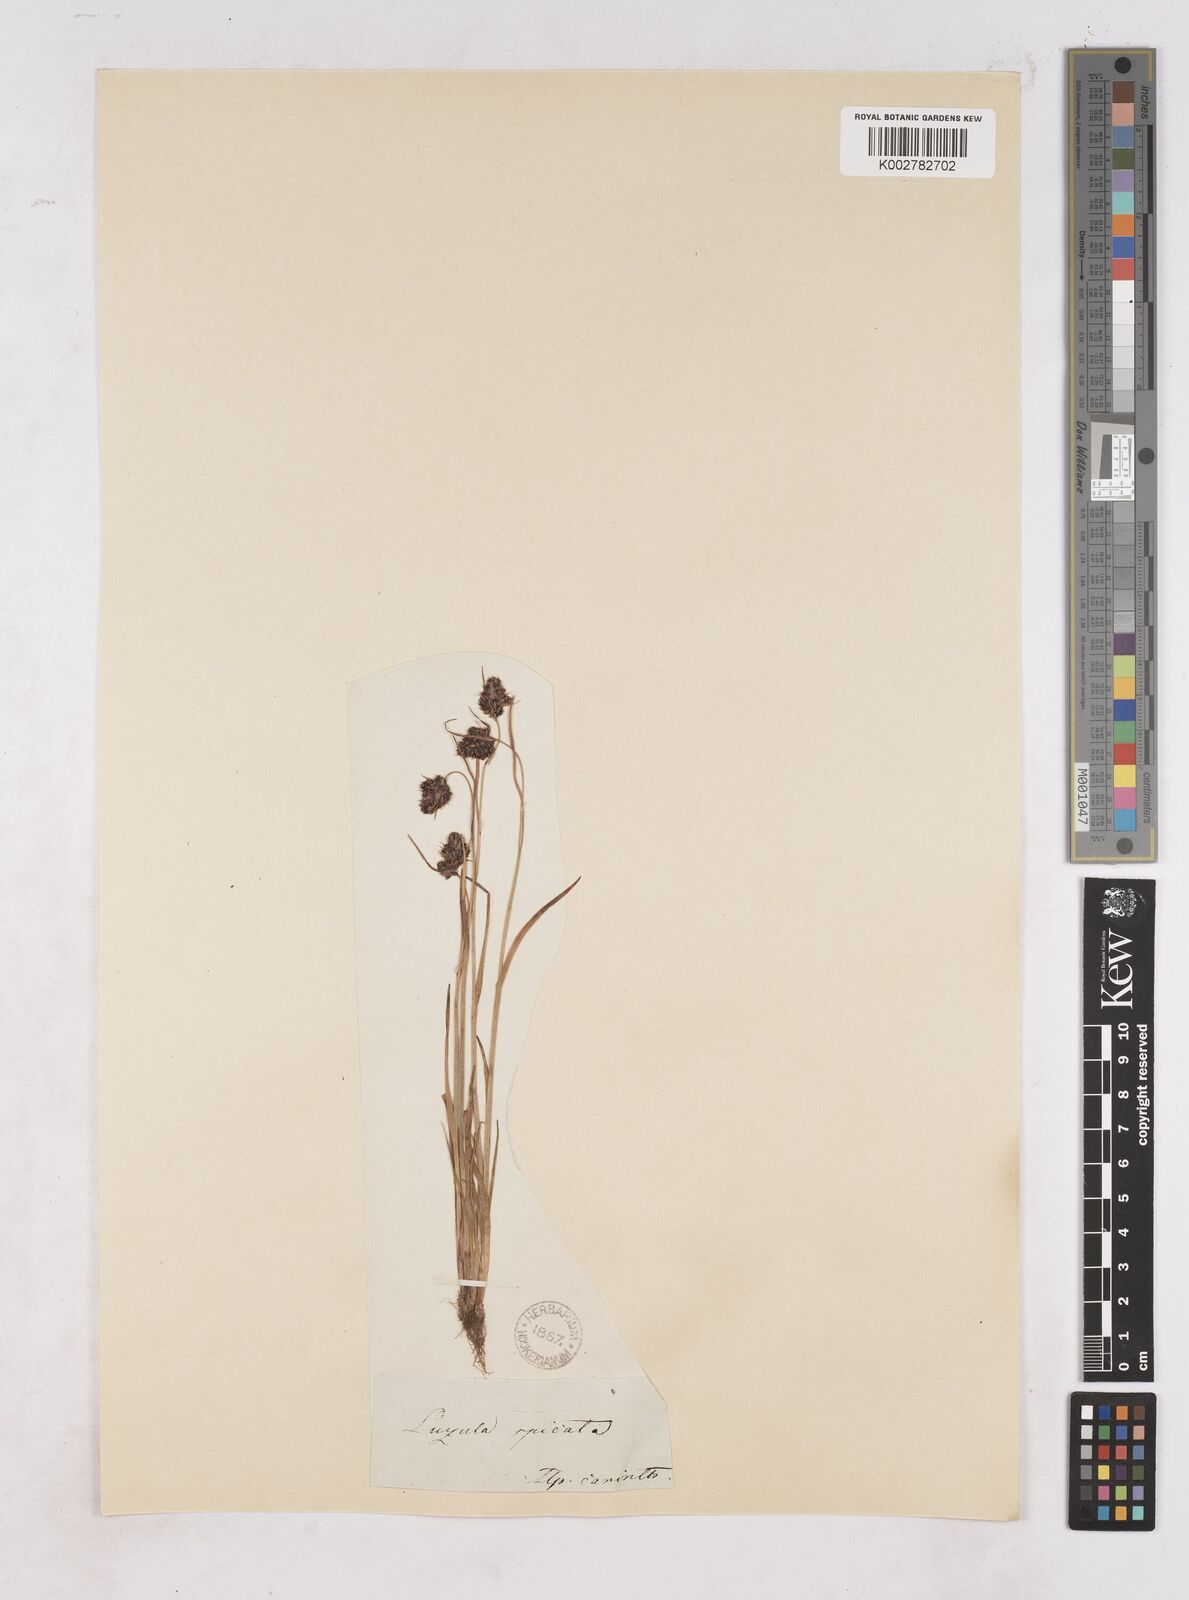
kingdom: Plantae
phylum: Tracheophyta
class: Liliopsida
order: Poales
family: Juncaceae
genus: Luzula
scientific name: Luzula spicata
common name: Spiked wood-rush
